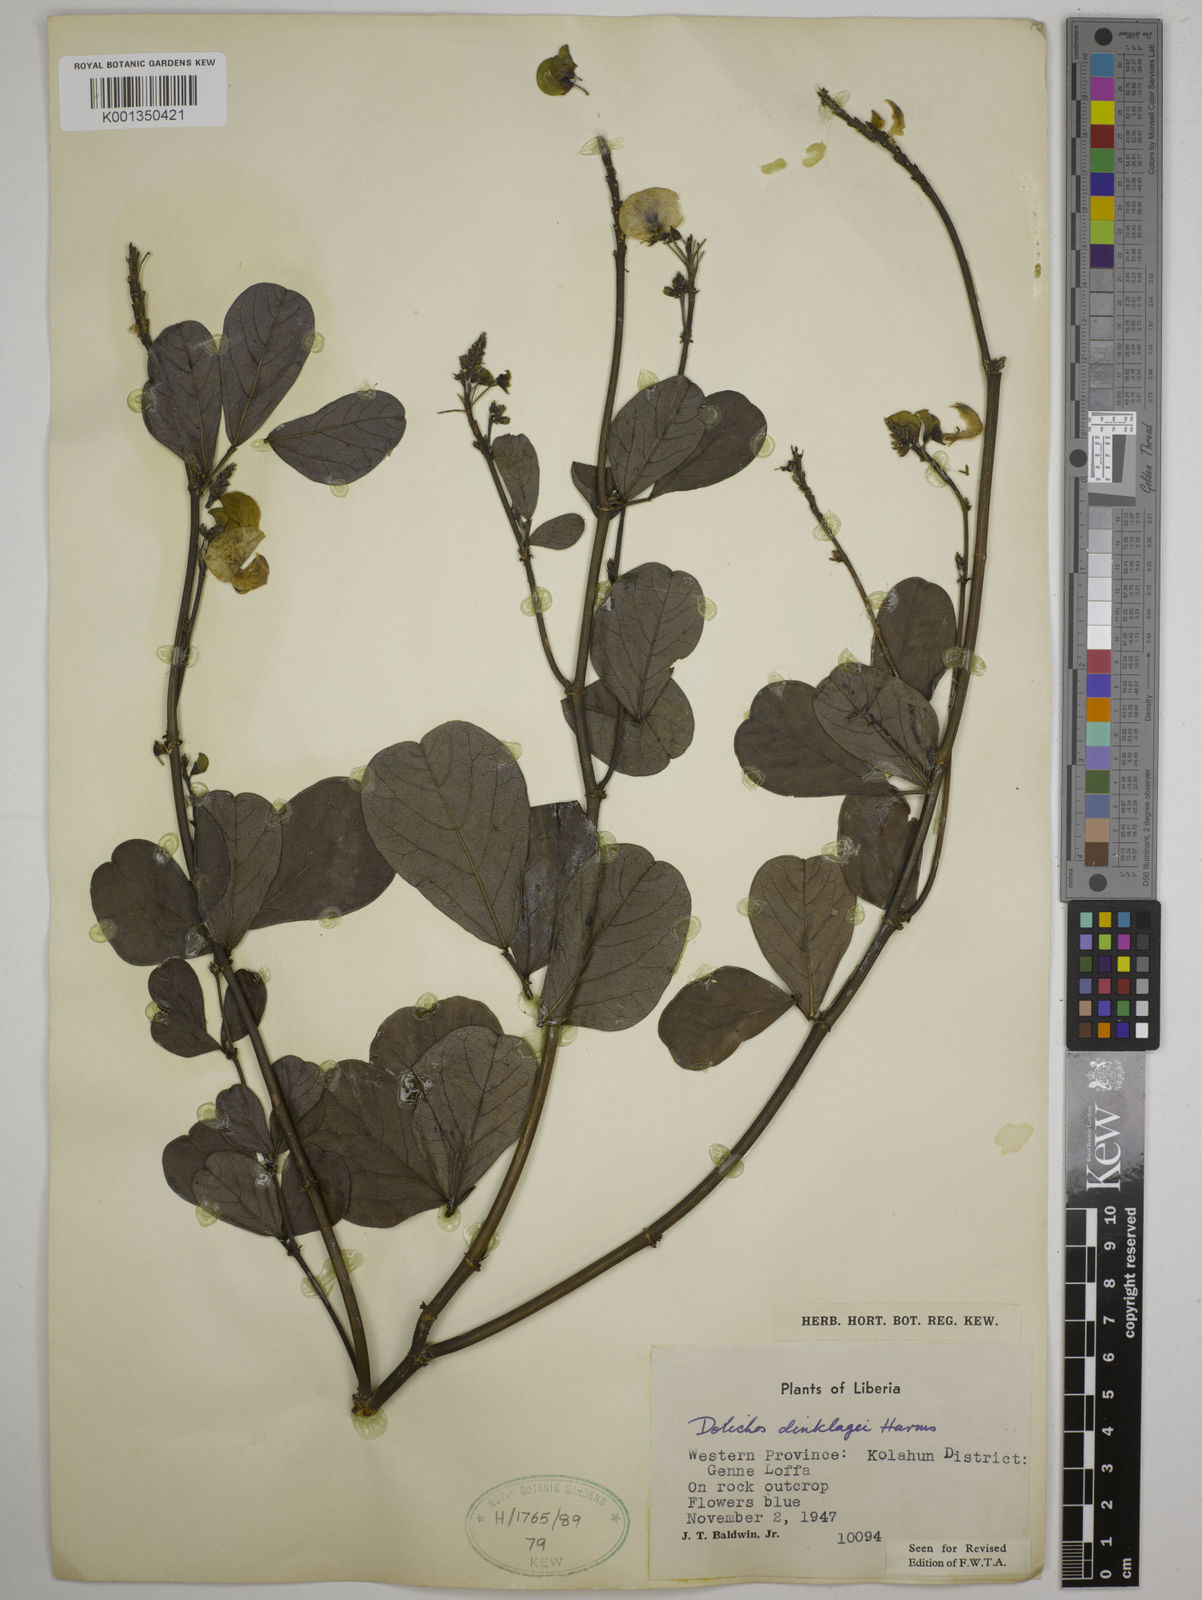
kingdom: Plantae
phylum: Tracheophyta
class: Magnoliopsida
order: Fabales
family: Fabaceae
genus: Dolichos
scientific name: Dolichos dinklagei
